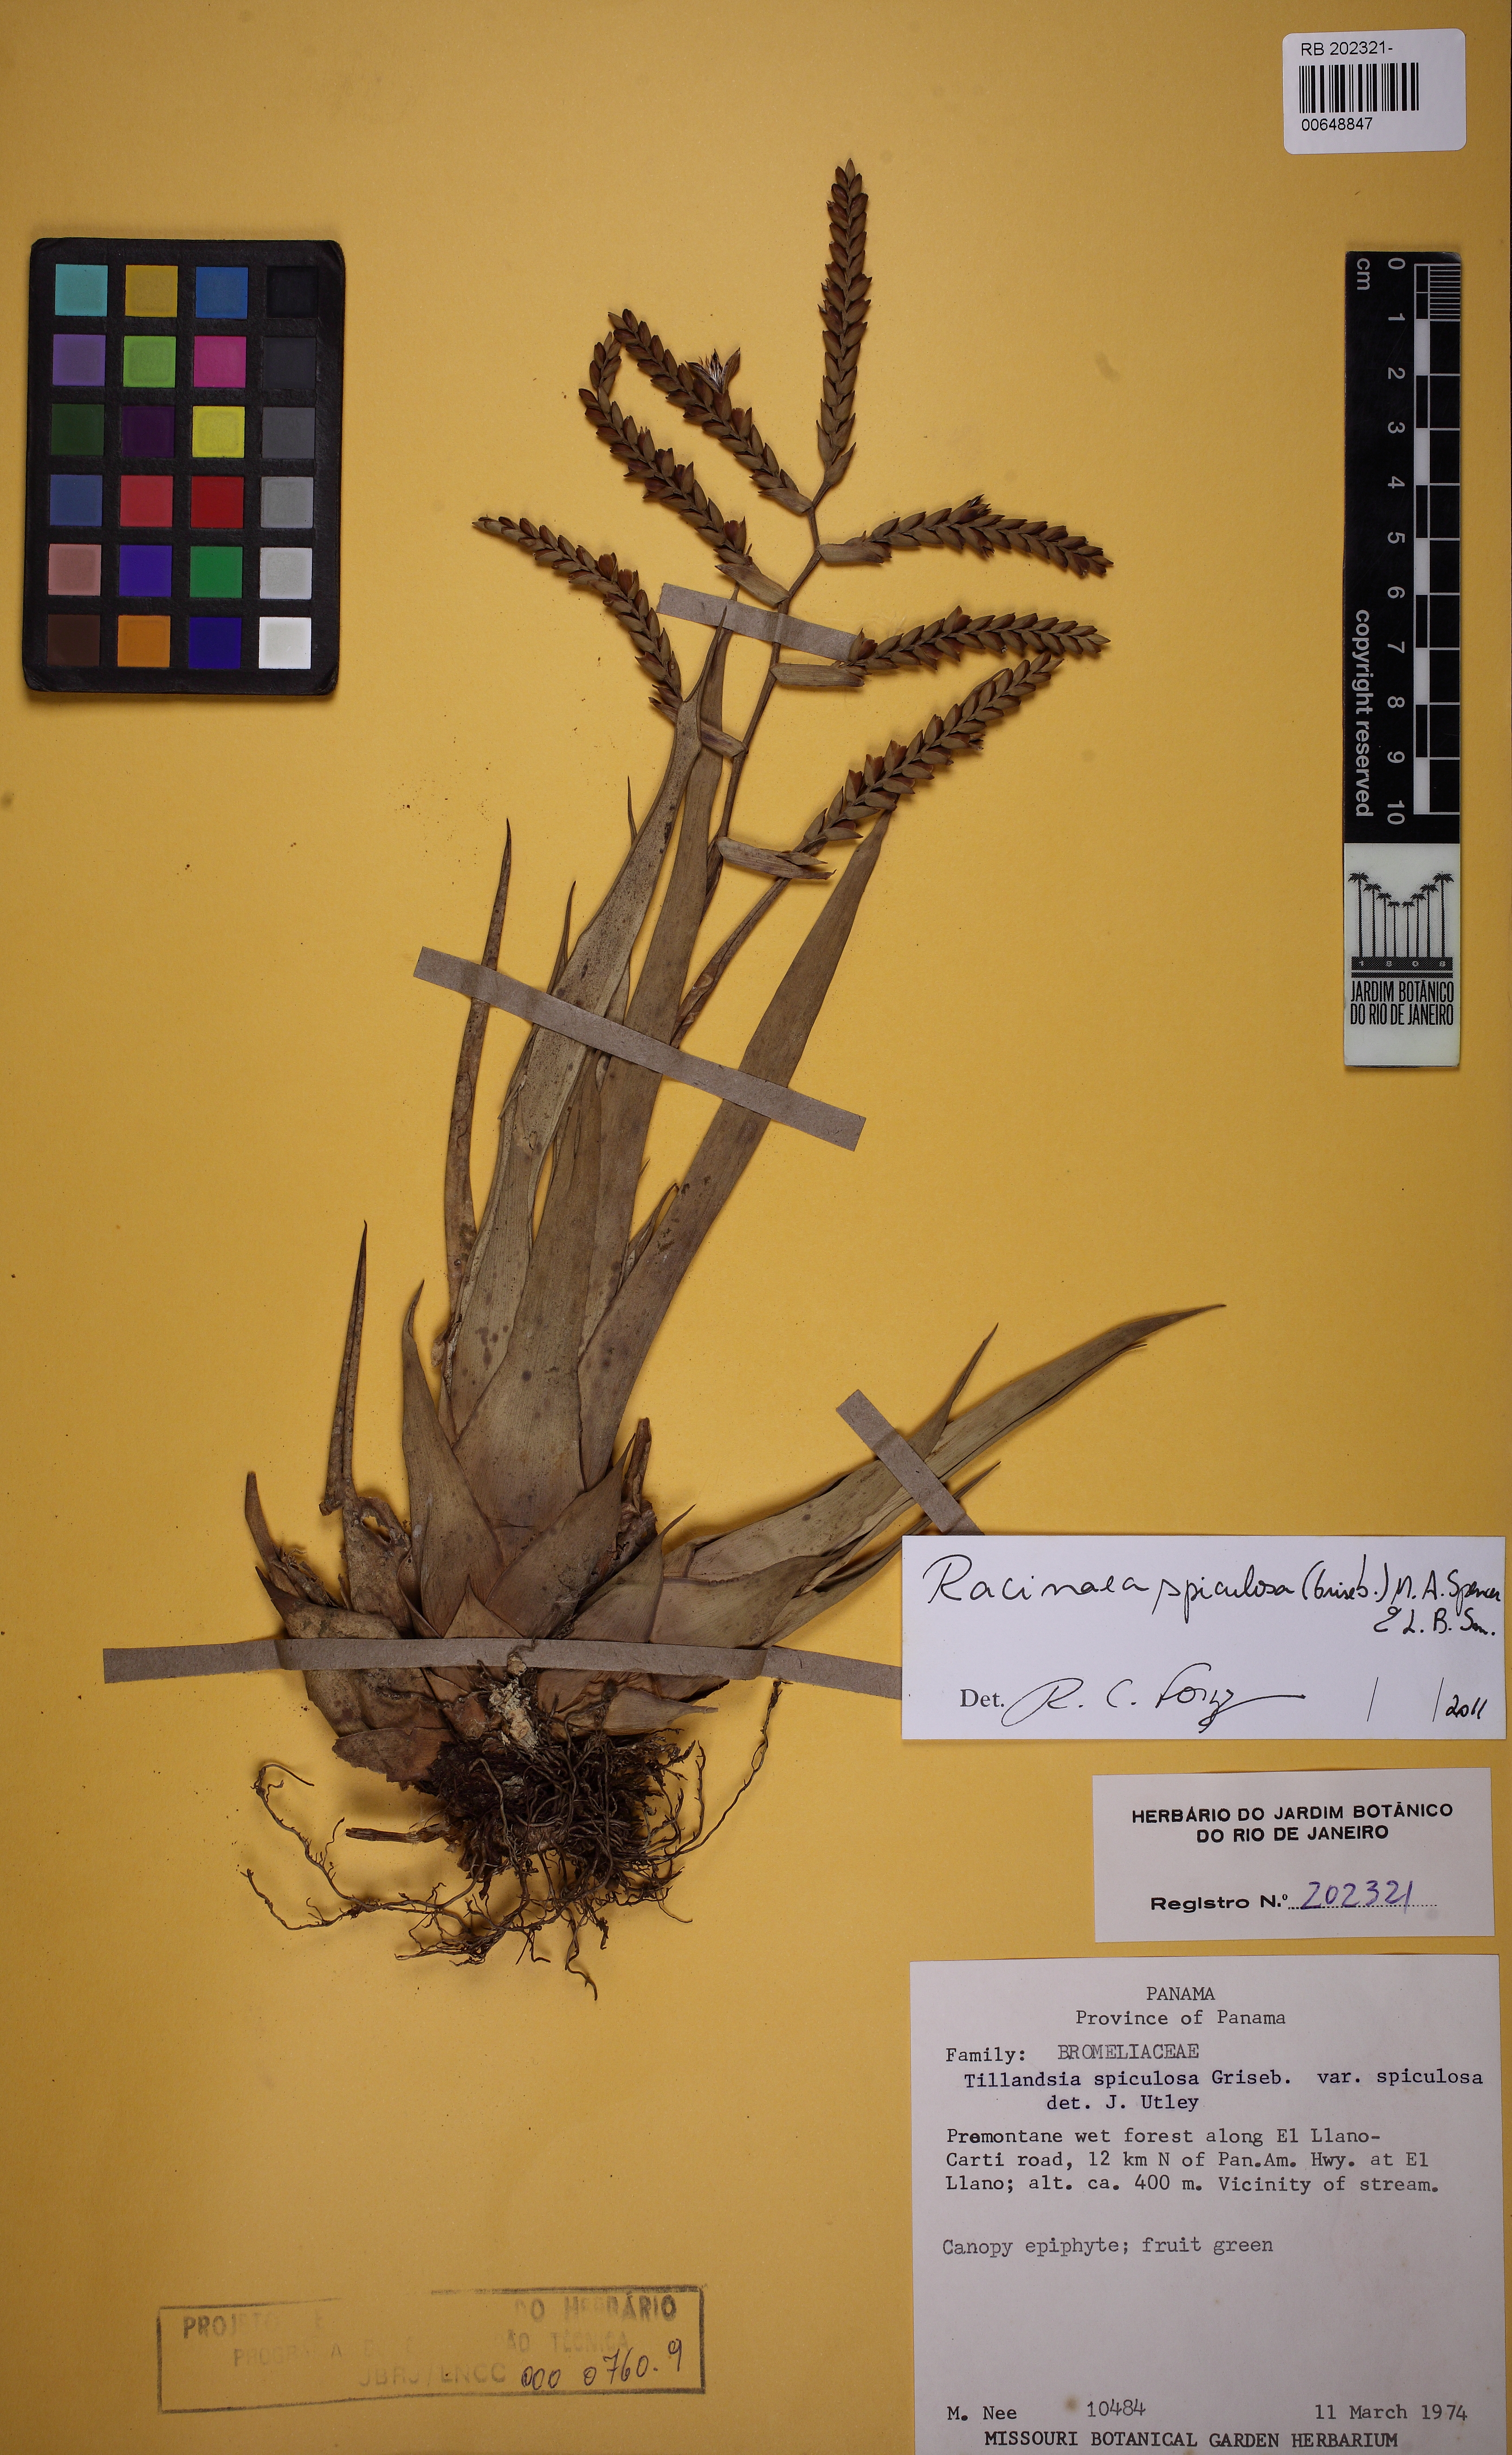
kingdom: Plantae
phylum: Tracheophyta
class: Liliopsida
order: Poales
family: Bromeliaceae
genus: Racinaea
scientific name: Racinaea spiculosa
